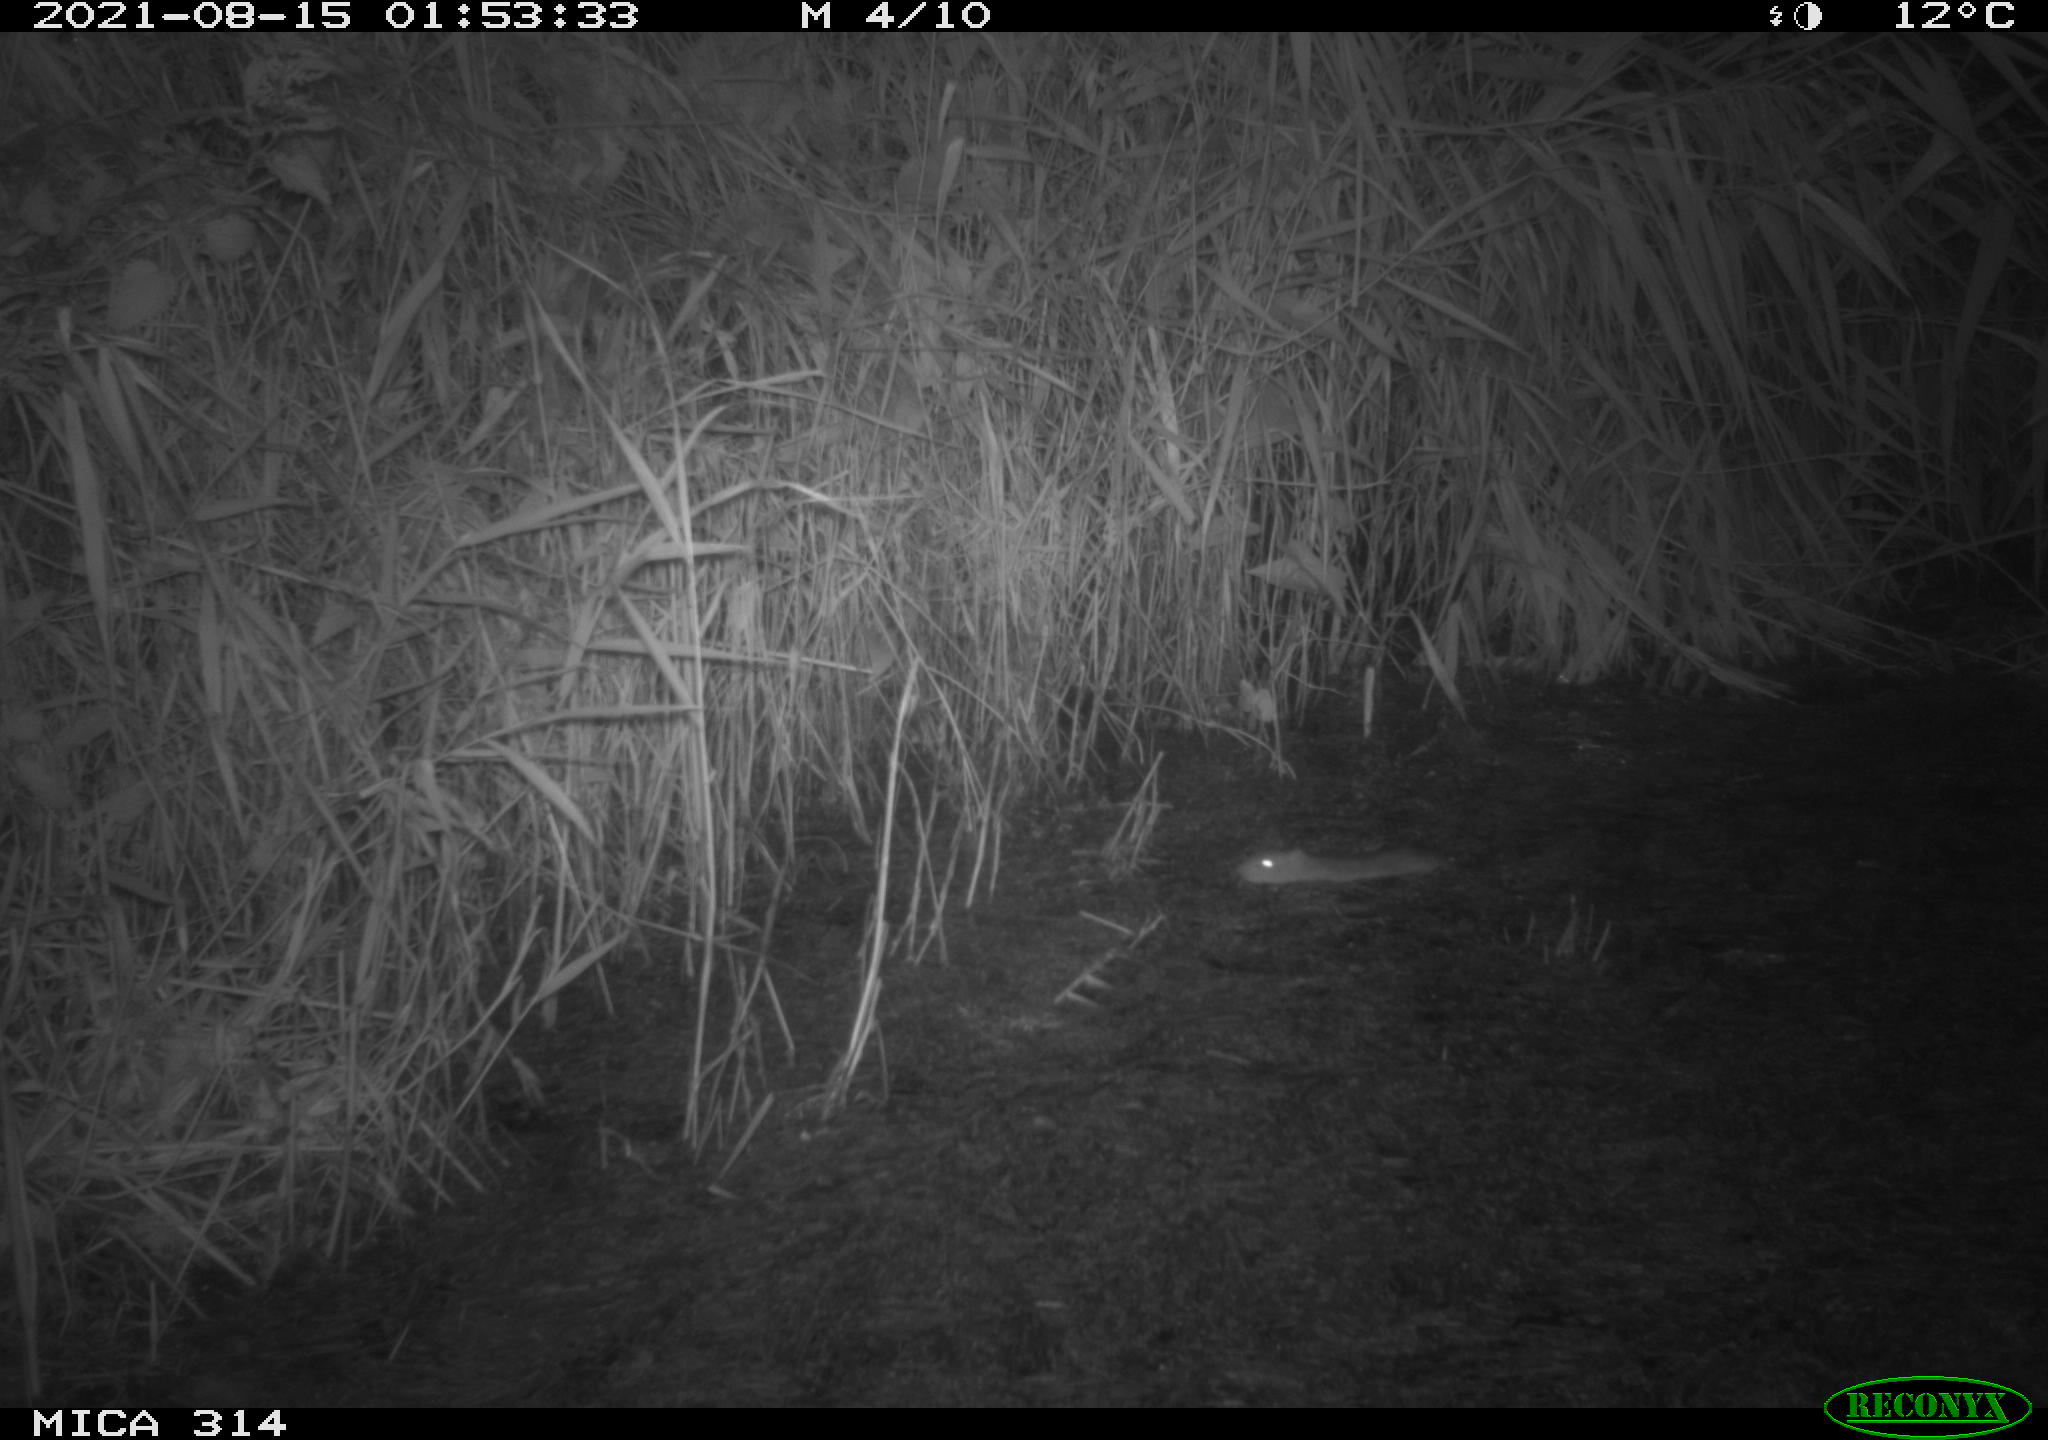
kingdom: Animalia
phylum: Chordata
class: Mammalia
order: Rodentia
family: Muridae
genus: Rattus
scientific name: Rattus norvegicus
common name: Brown rat
